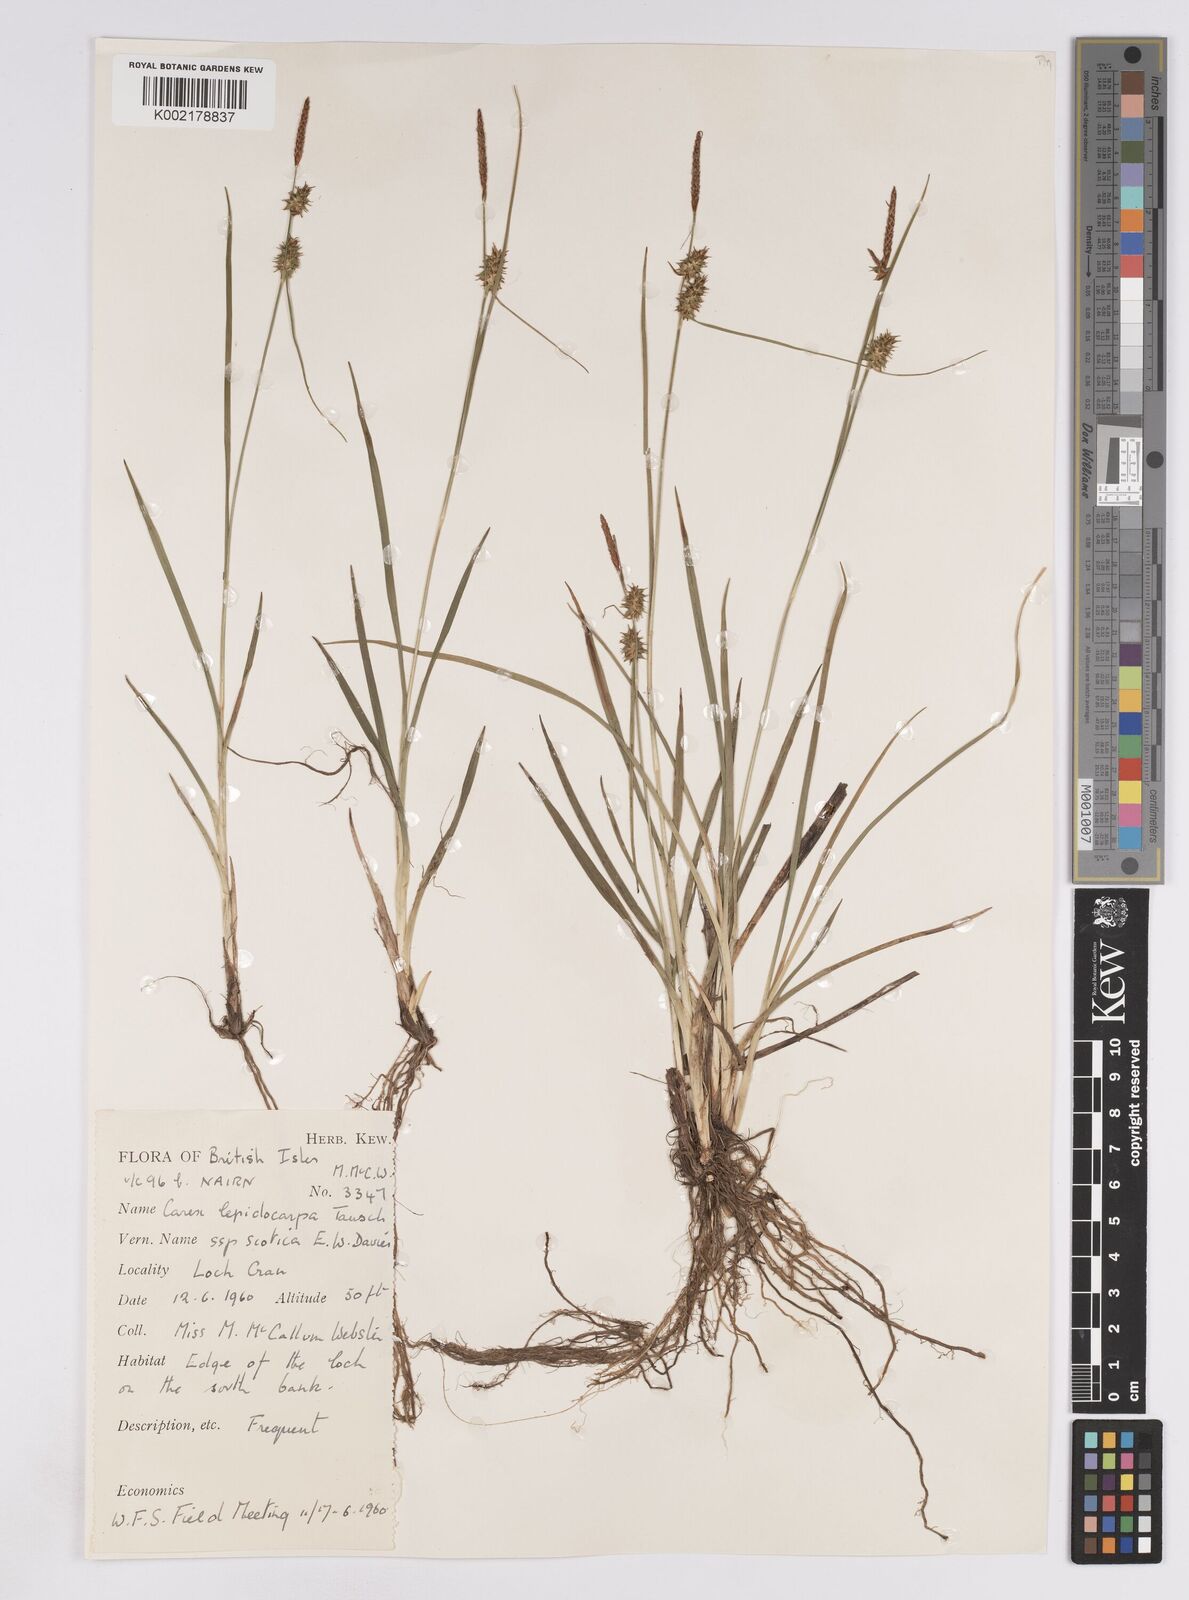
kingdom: Plantae
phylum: Tracheophyta
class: Liliopsida
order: Poales
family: Cyperaceae
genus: Carex
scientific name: Carex lepidocarpa
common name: Long-stalked yellow-sedge
